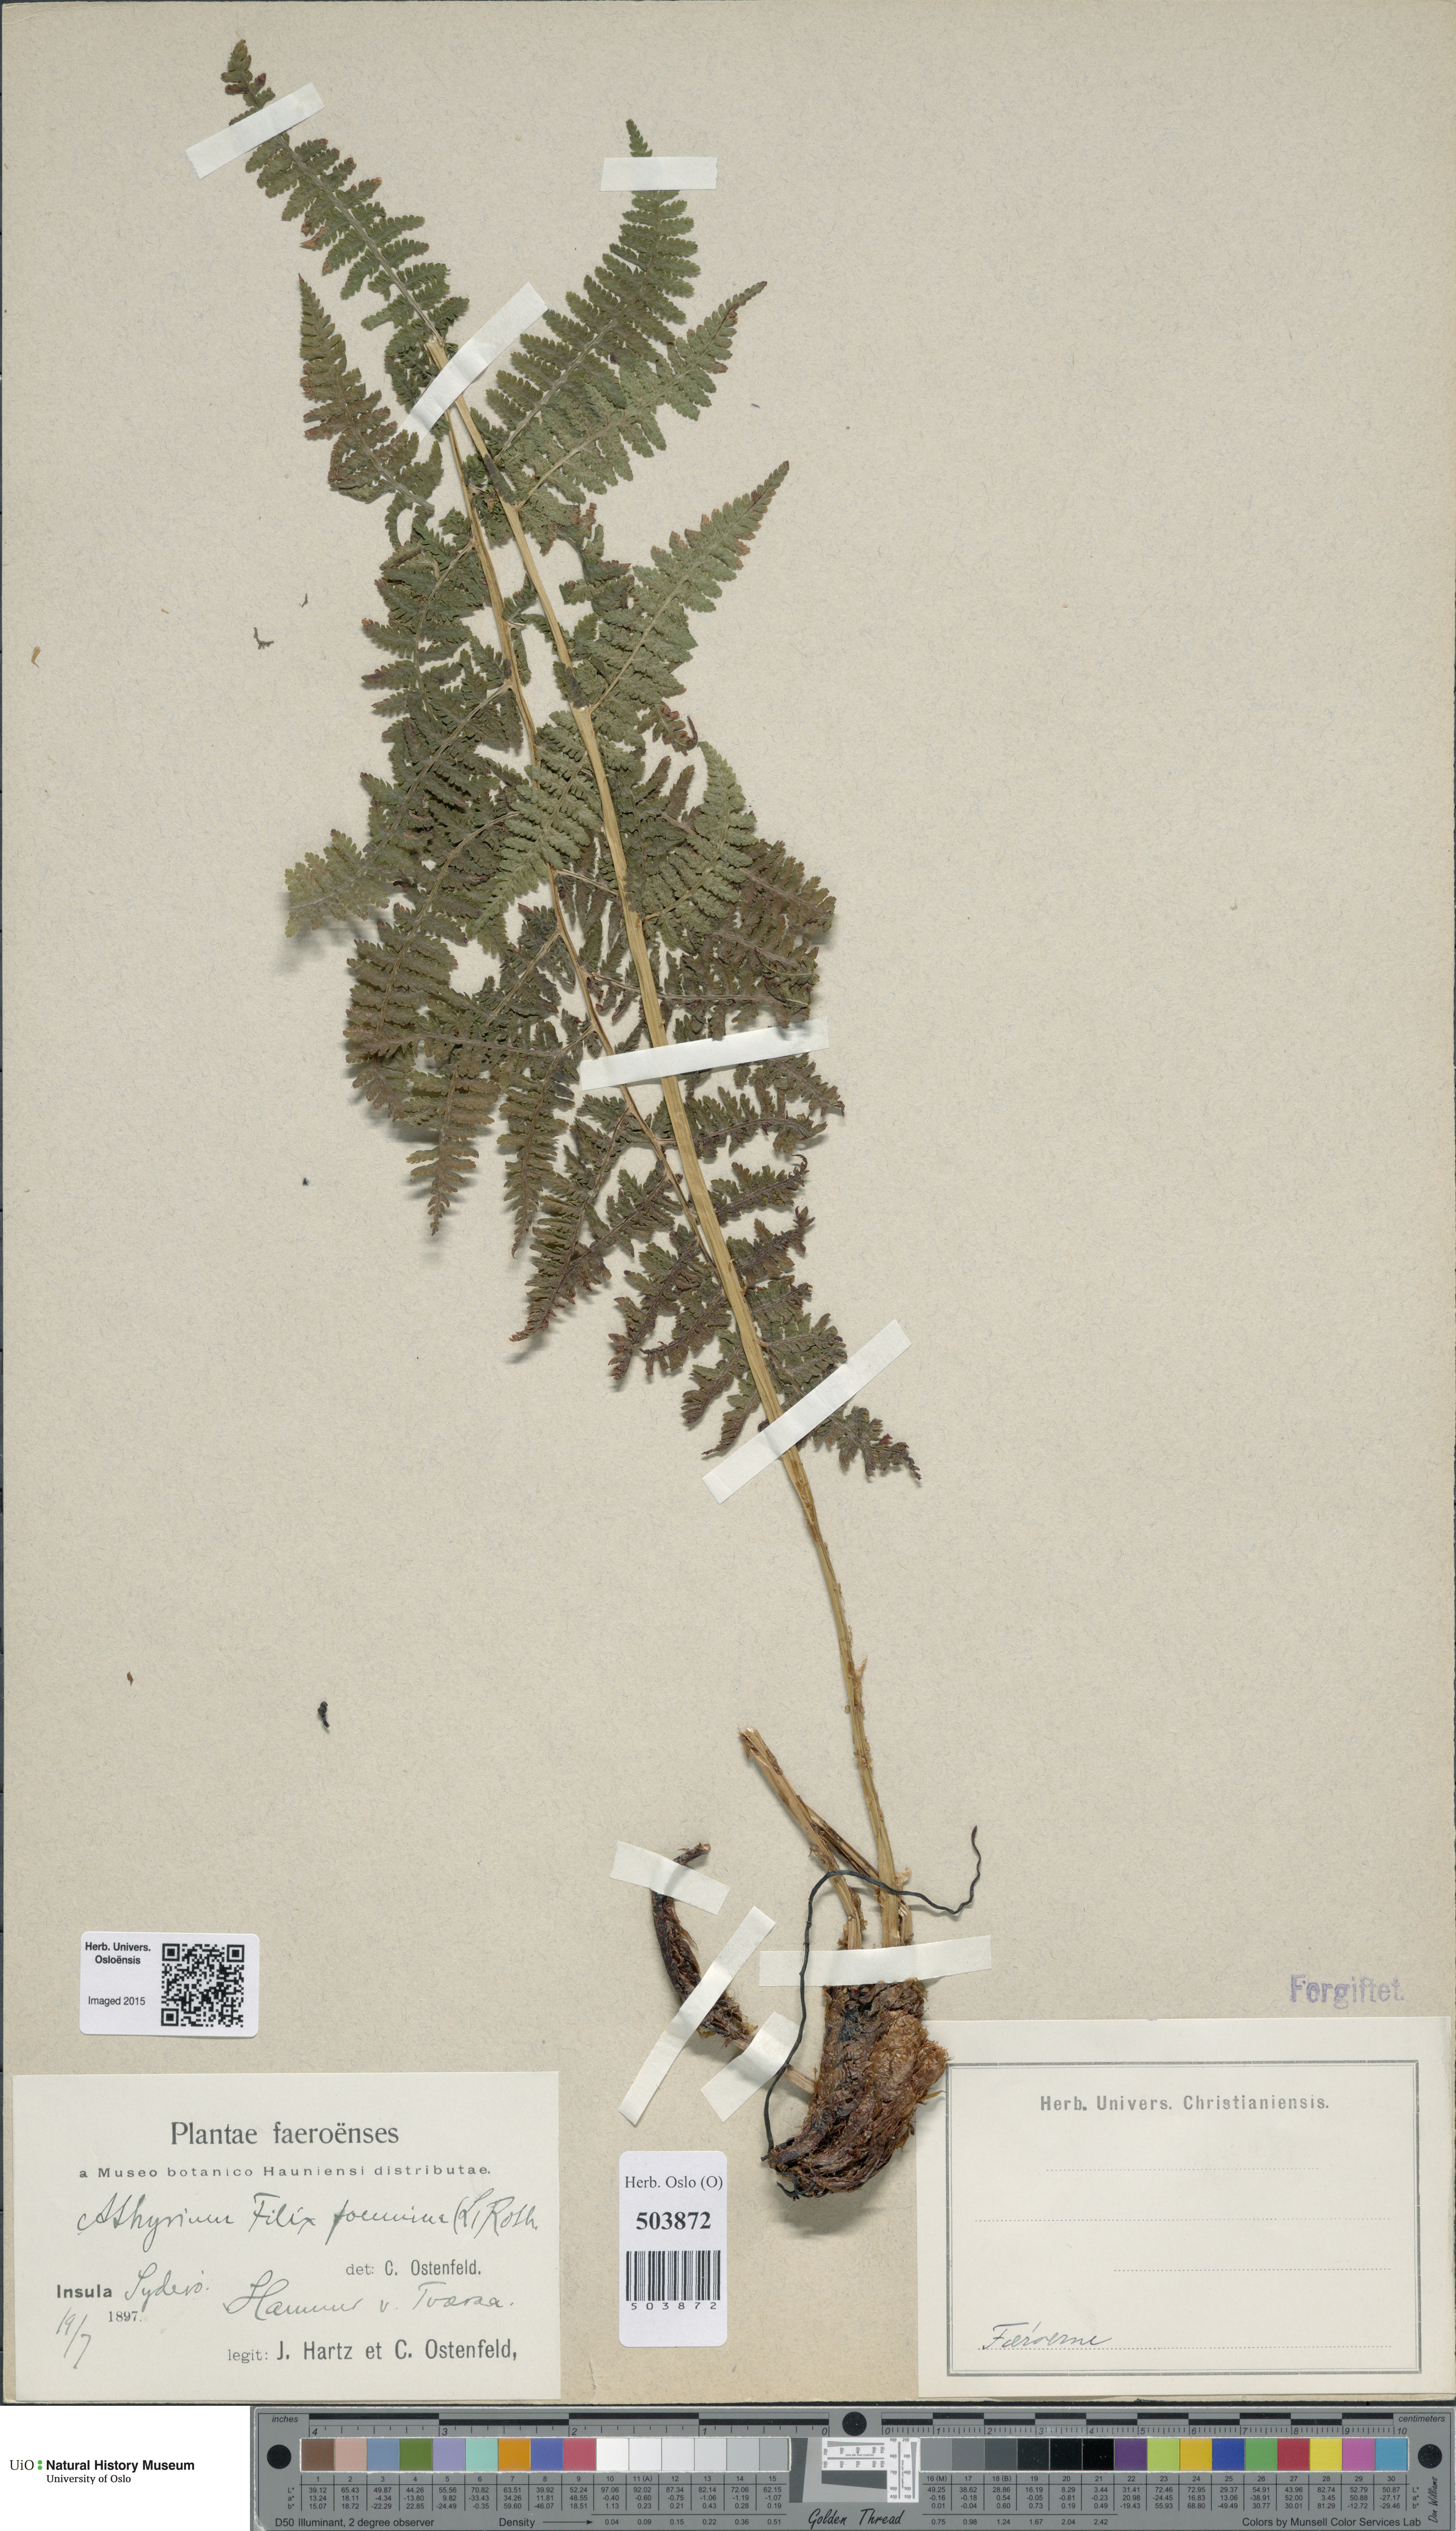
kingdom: Plantae
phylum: Tracheophyta
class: Polypodiopsida
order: Polypodiales
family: Athyriaceae
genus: Athyrium
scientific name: Athyrium filix-femina
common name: Lady fern
